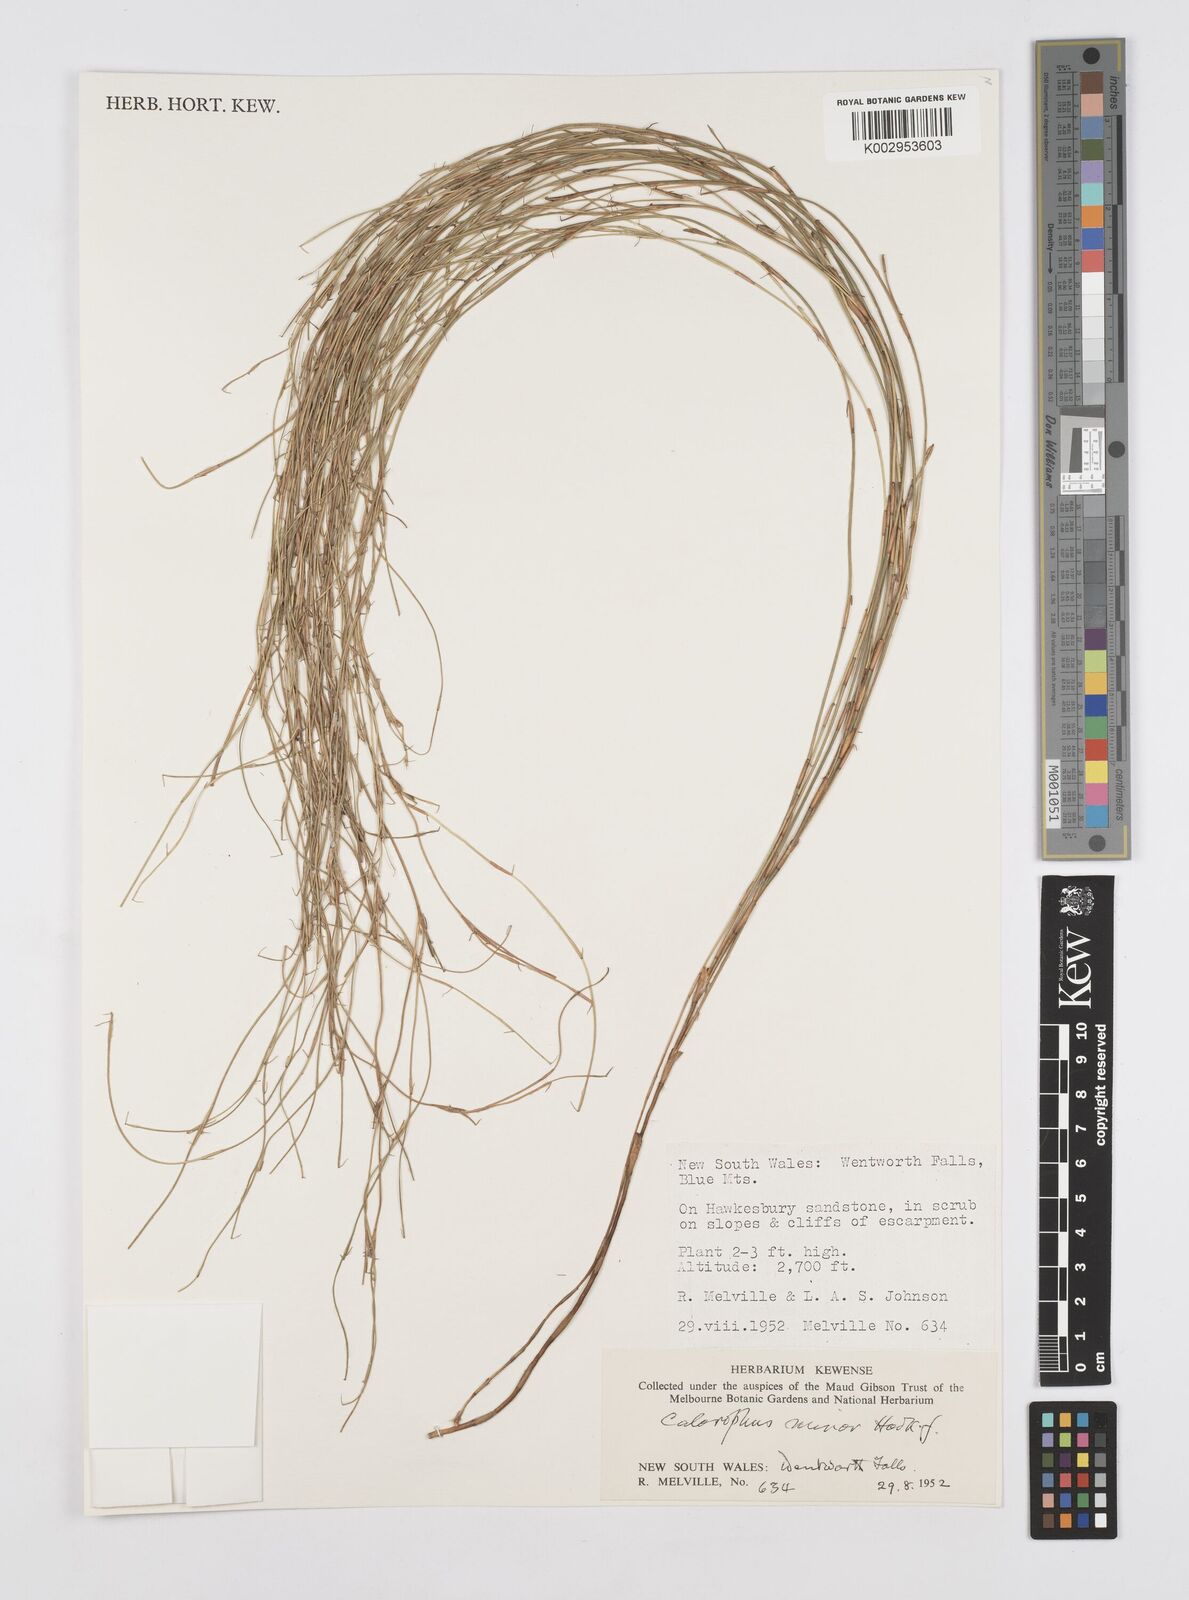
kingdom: Plantae
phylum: Tracheophyta
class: Liliopsida
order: Poales
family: Restionaceae
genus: Empodisma
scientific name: Empodisma minus
